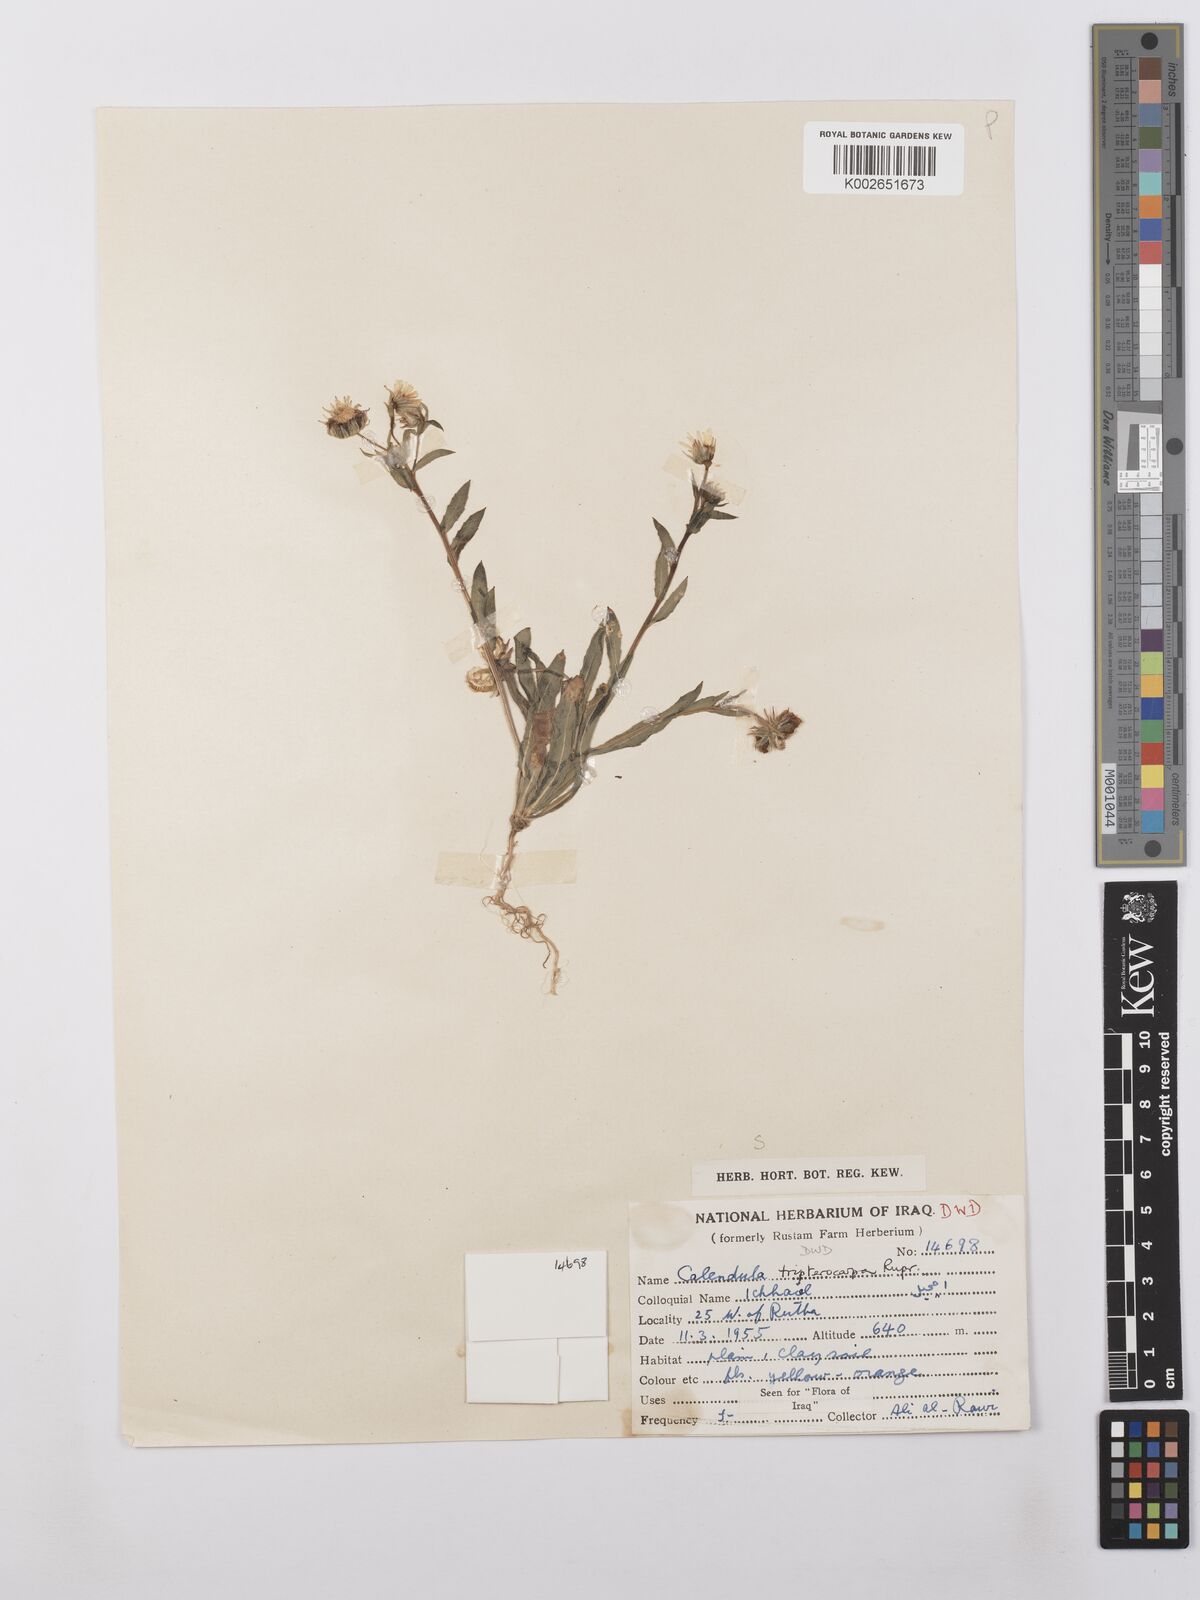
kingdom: Plantae
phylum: Tracheophyta
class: Magnoliopsida
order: Asterales
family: Asteraceae
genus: Calendula
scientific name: Calendula tripterocarpa
